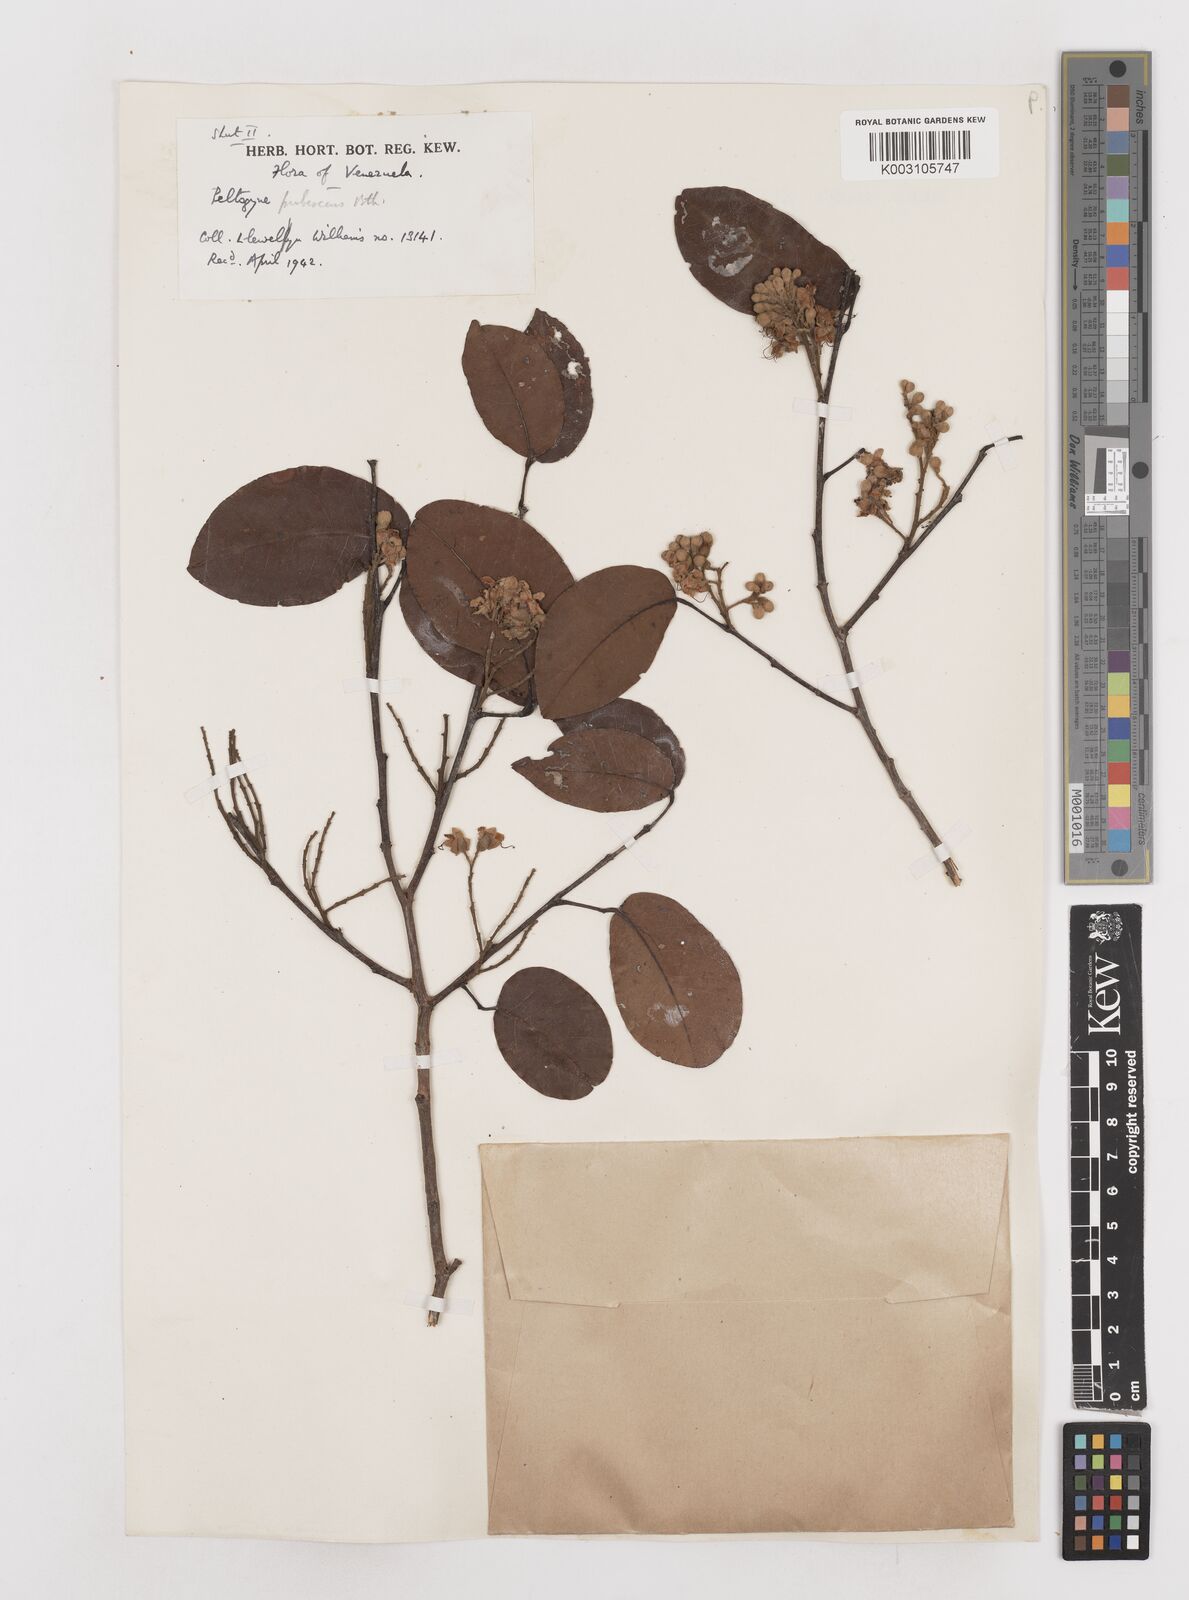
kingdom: Plantae
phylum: Tracheophyta
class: Magnoliopsida
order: Fabales
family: Fabaceae
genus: Peltogyne
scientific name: Peltogyne paniculata
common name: Purpleheart
